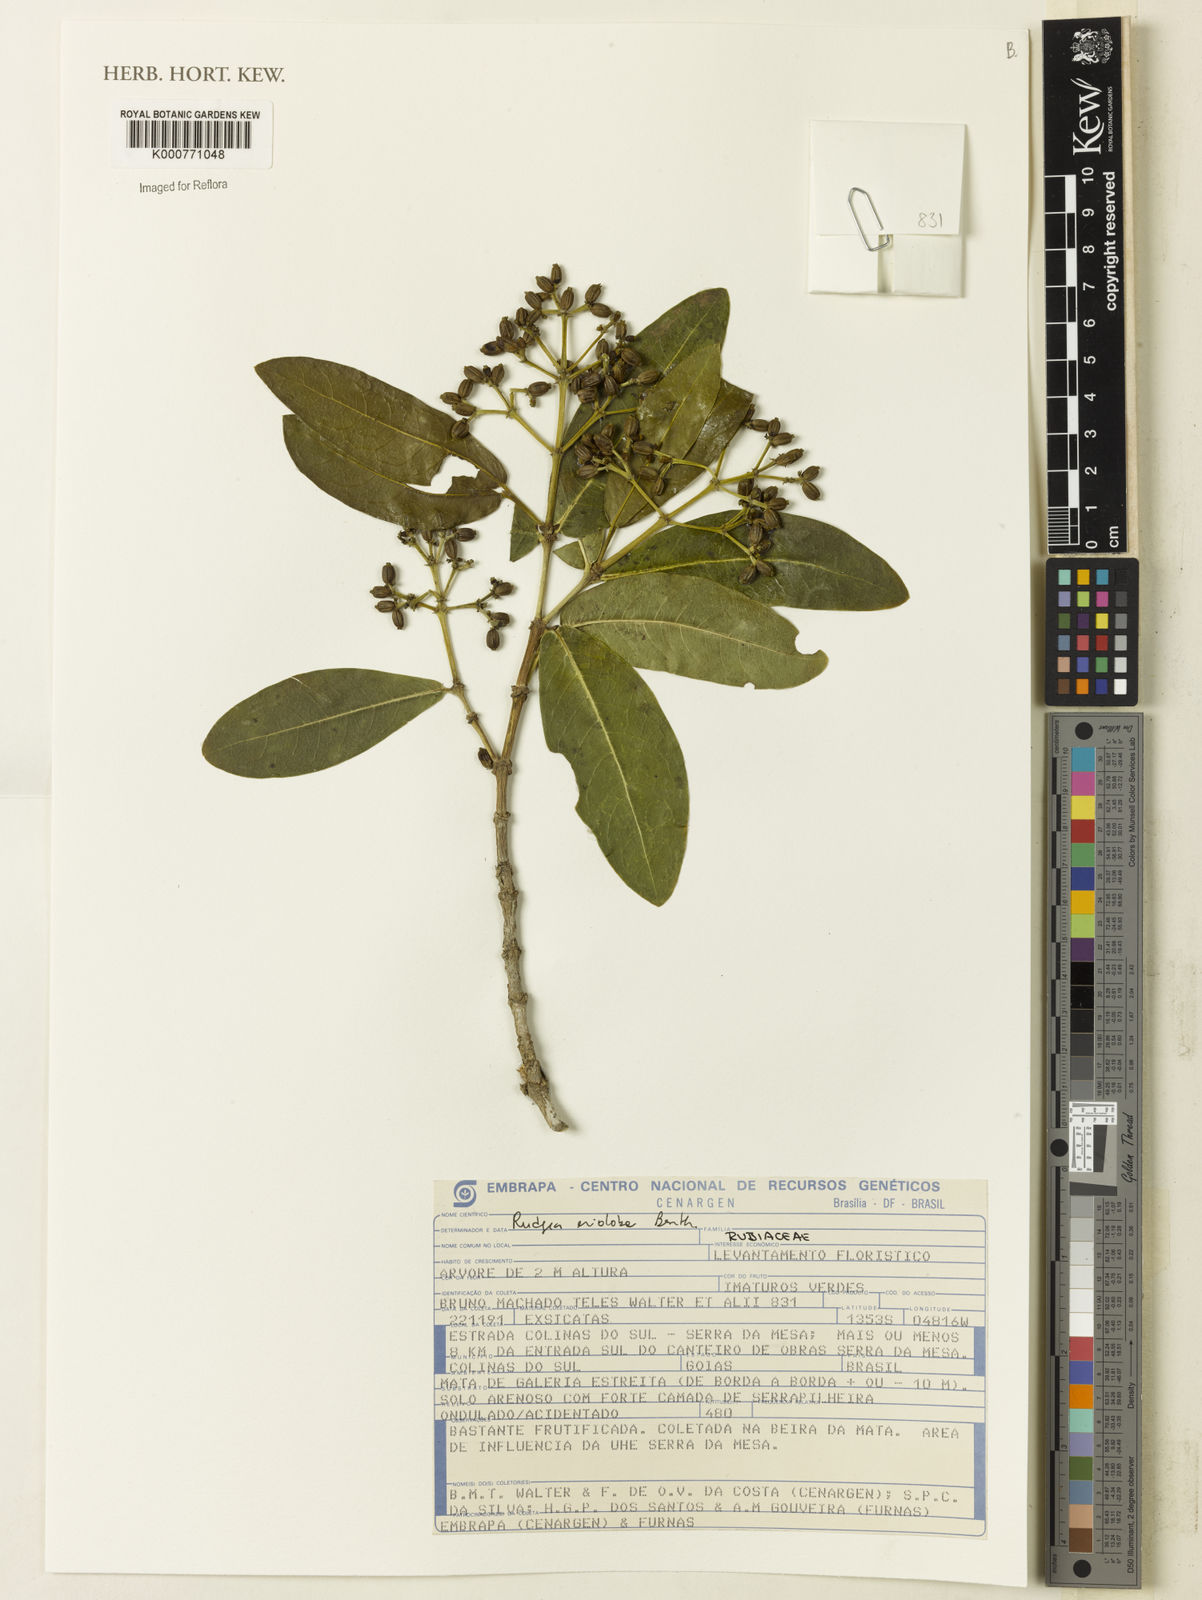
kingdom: Plantae
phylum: Tracheophyta
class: Magnoliopsida
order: Gentianales
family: Rubiaceae
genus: Rudgea
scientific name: Rudgea erioloba
